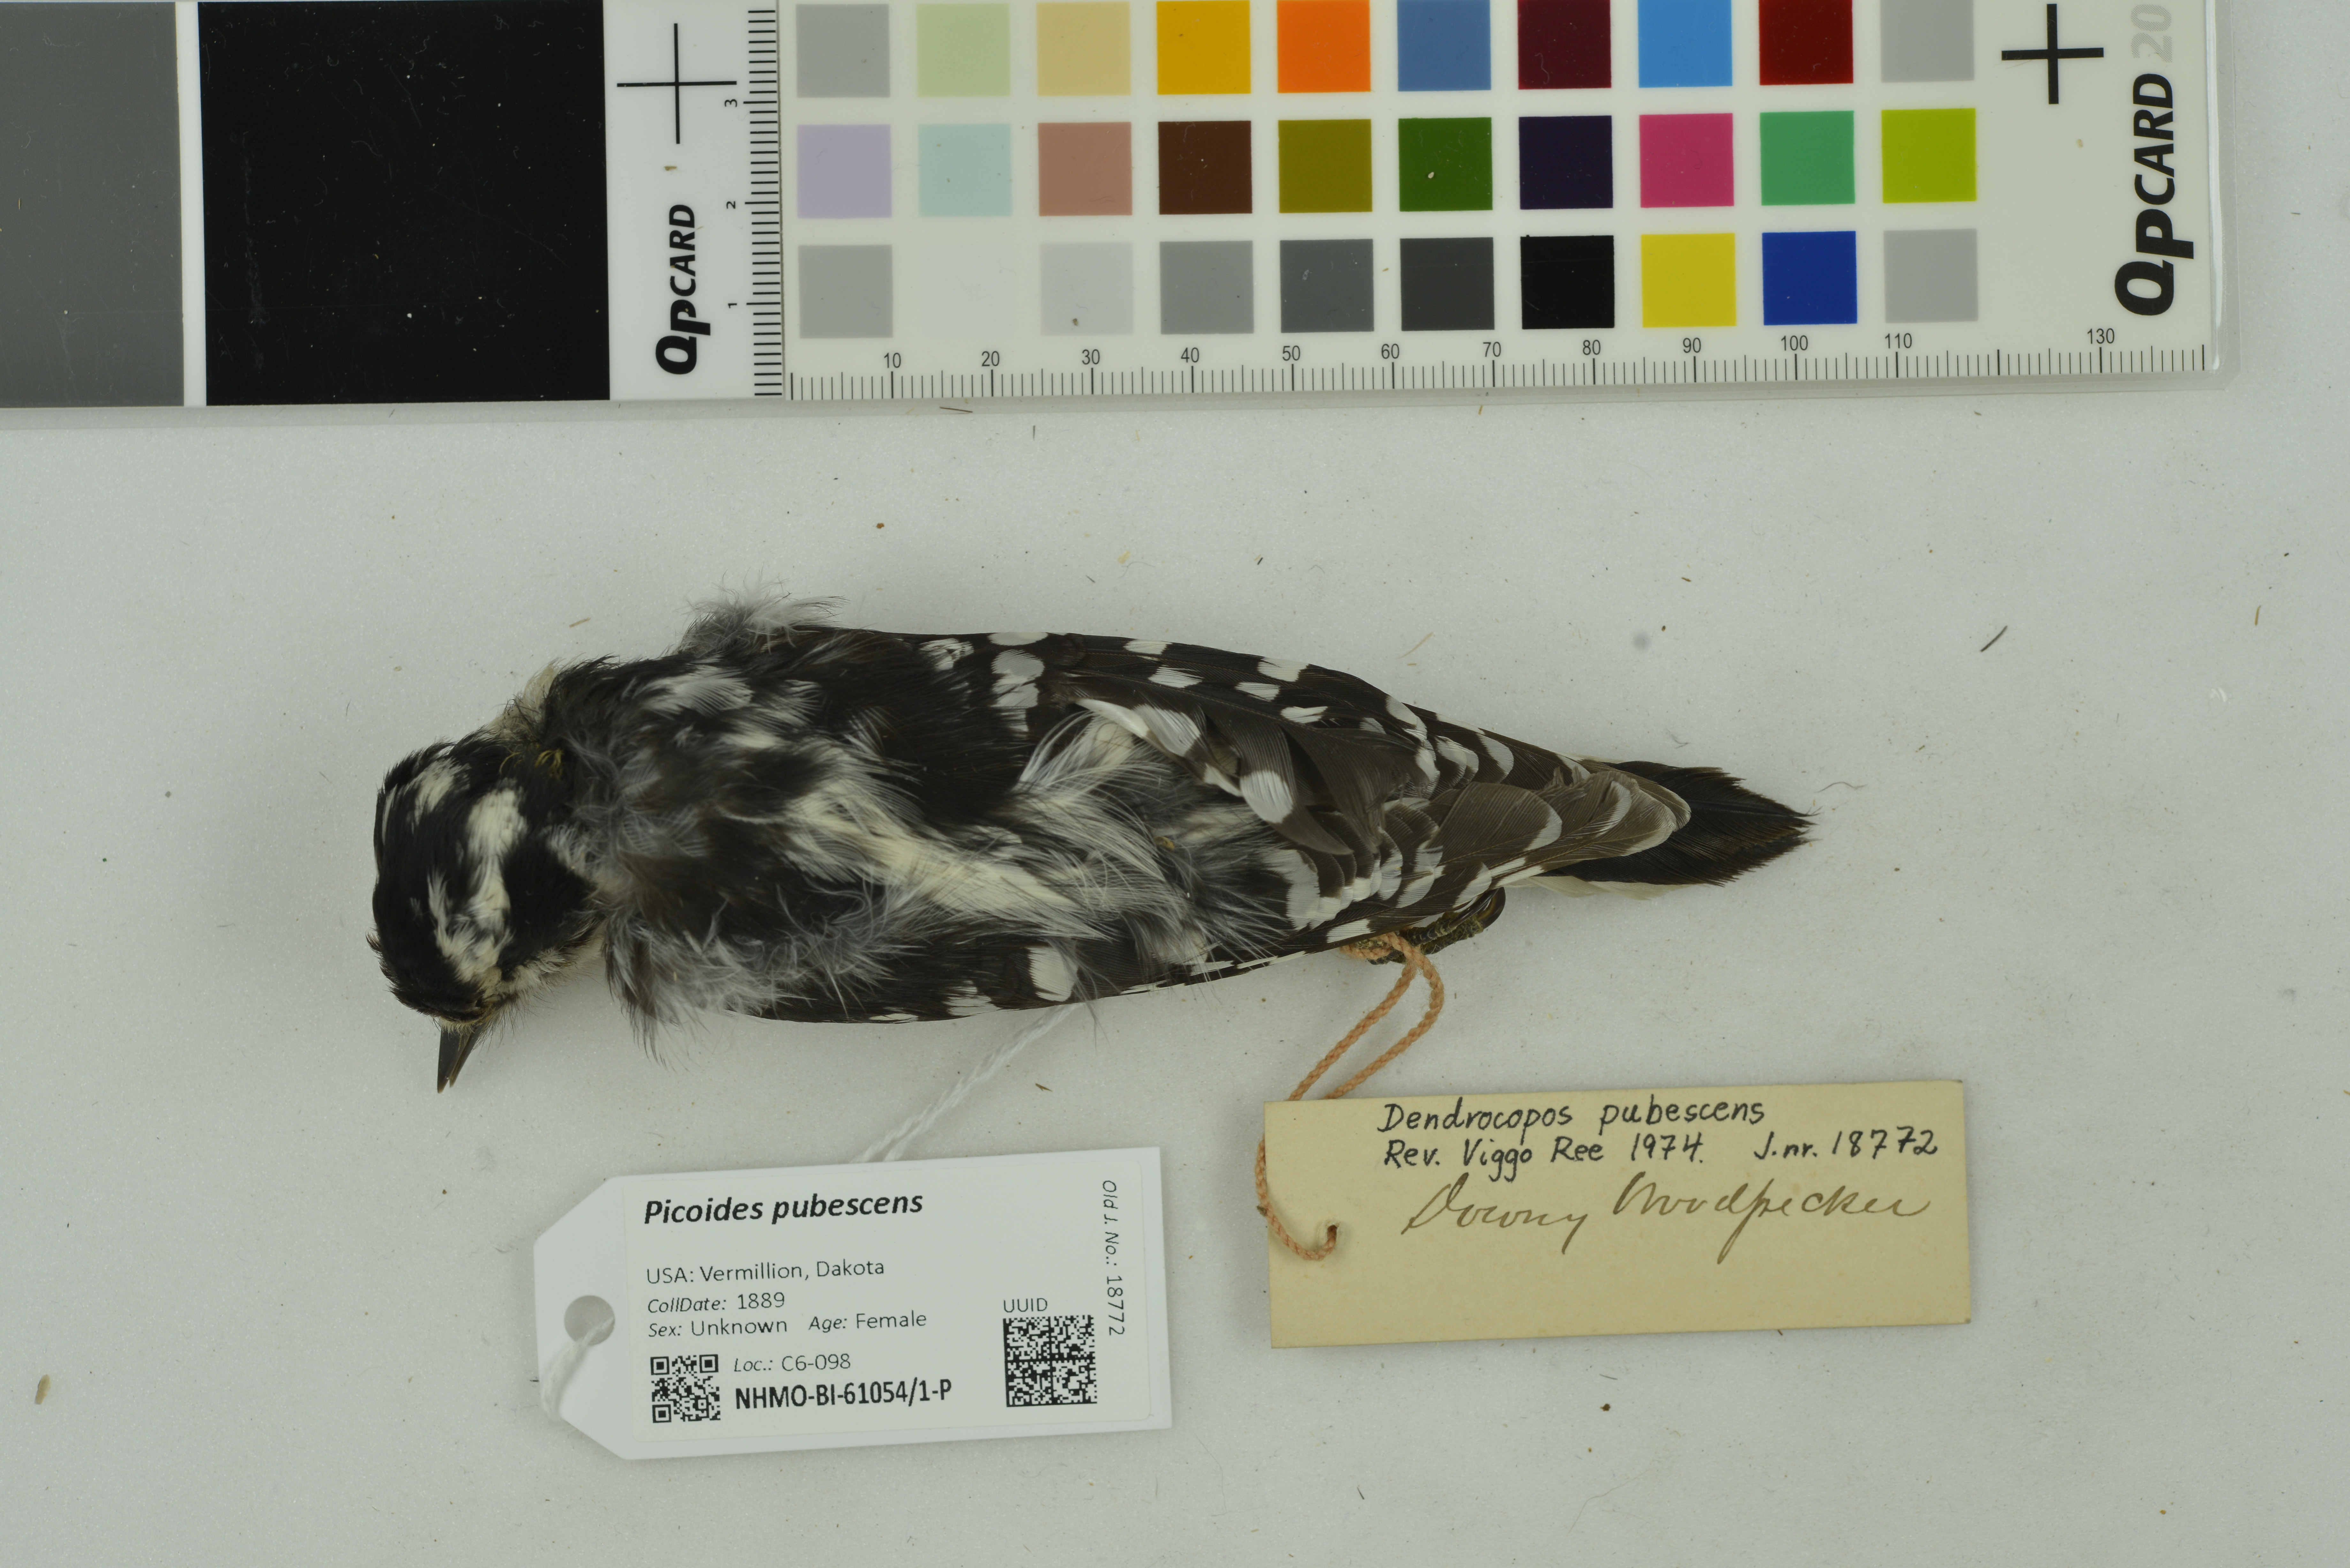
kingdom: Animalia
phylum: Chordata
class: Aves
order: Piciformes
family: Picidae
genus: Dryobates
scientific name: Dryobates pubescens
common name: Downy woodpecker
